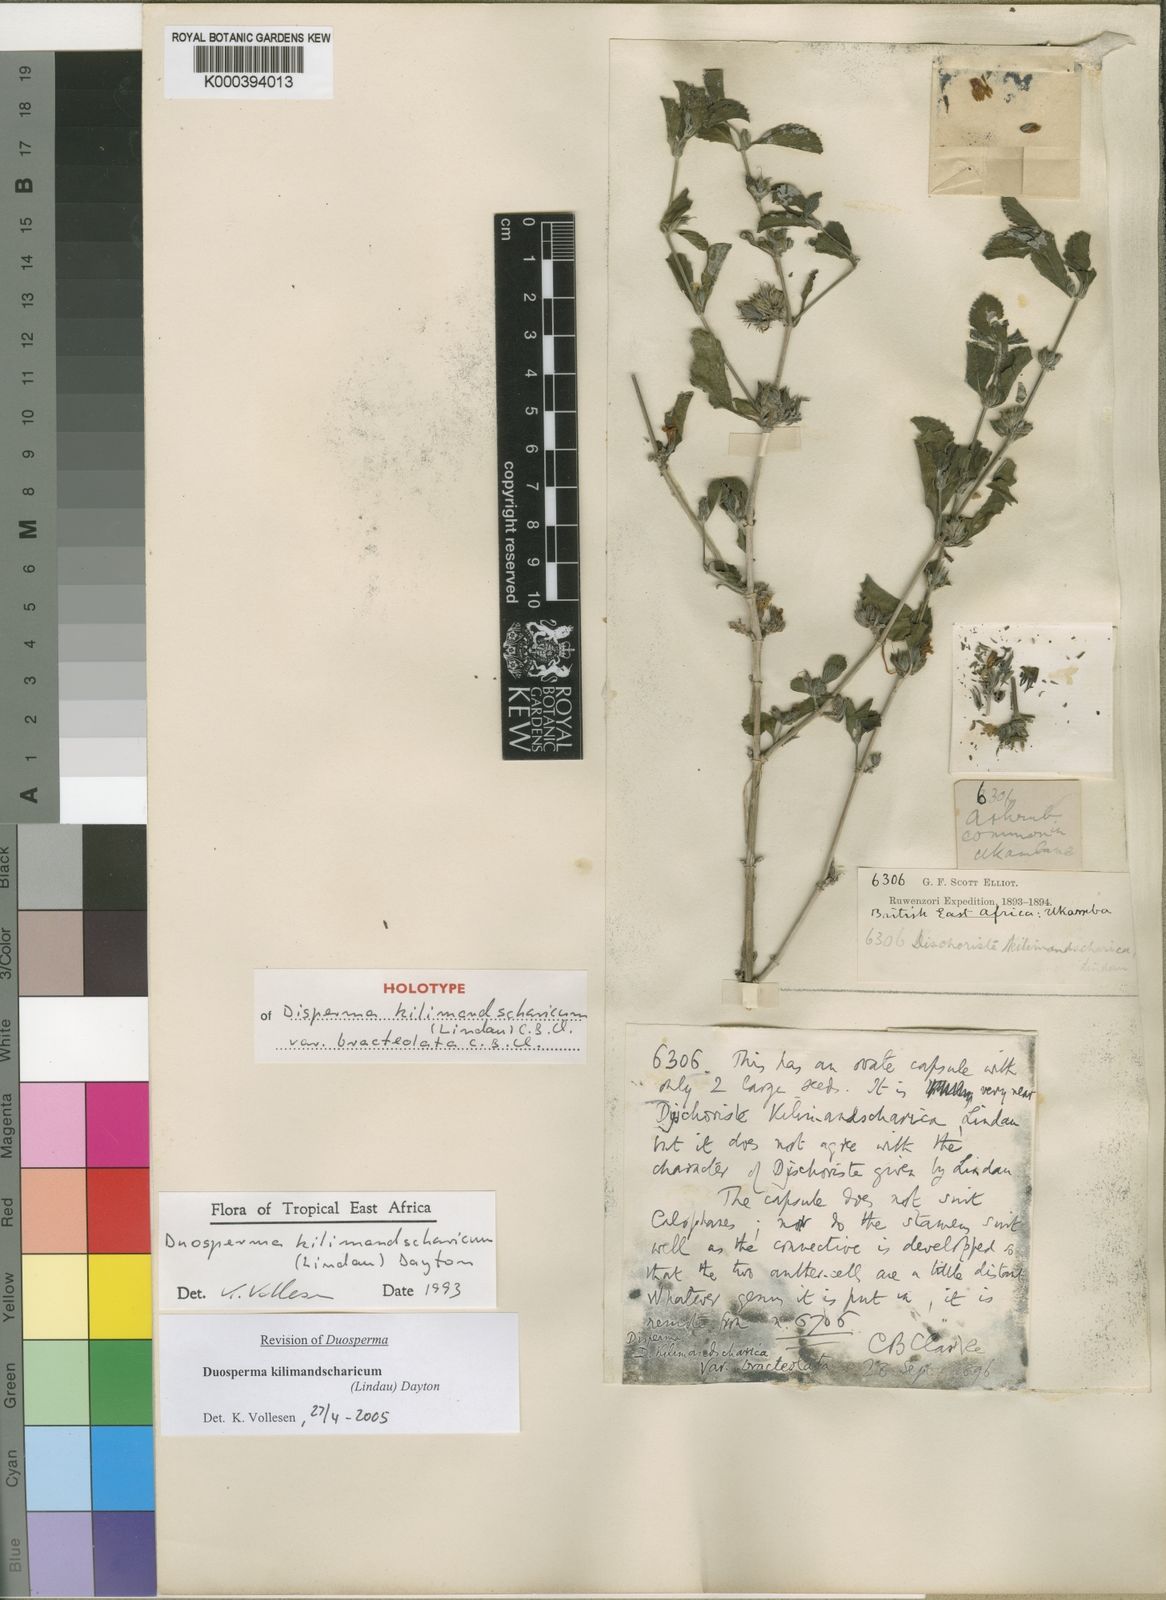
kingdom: Plantae
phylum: Tracheophyta
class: Magnoliopsida
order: Lamiales
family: Acanthaceae
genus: Duosperma
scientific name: Duosperma kilimandscharicum
